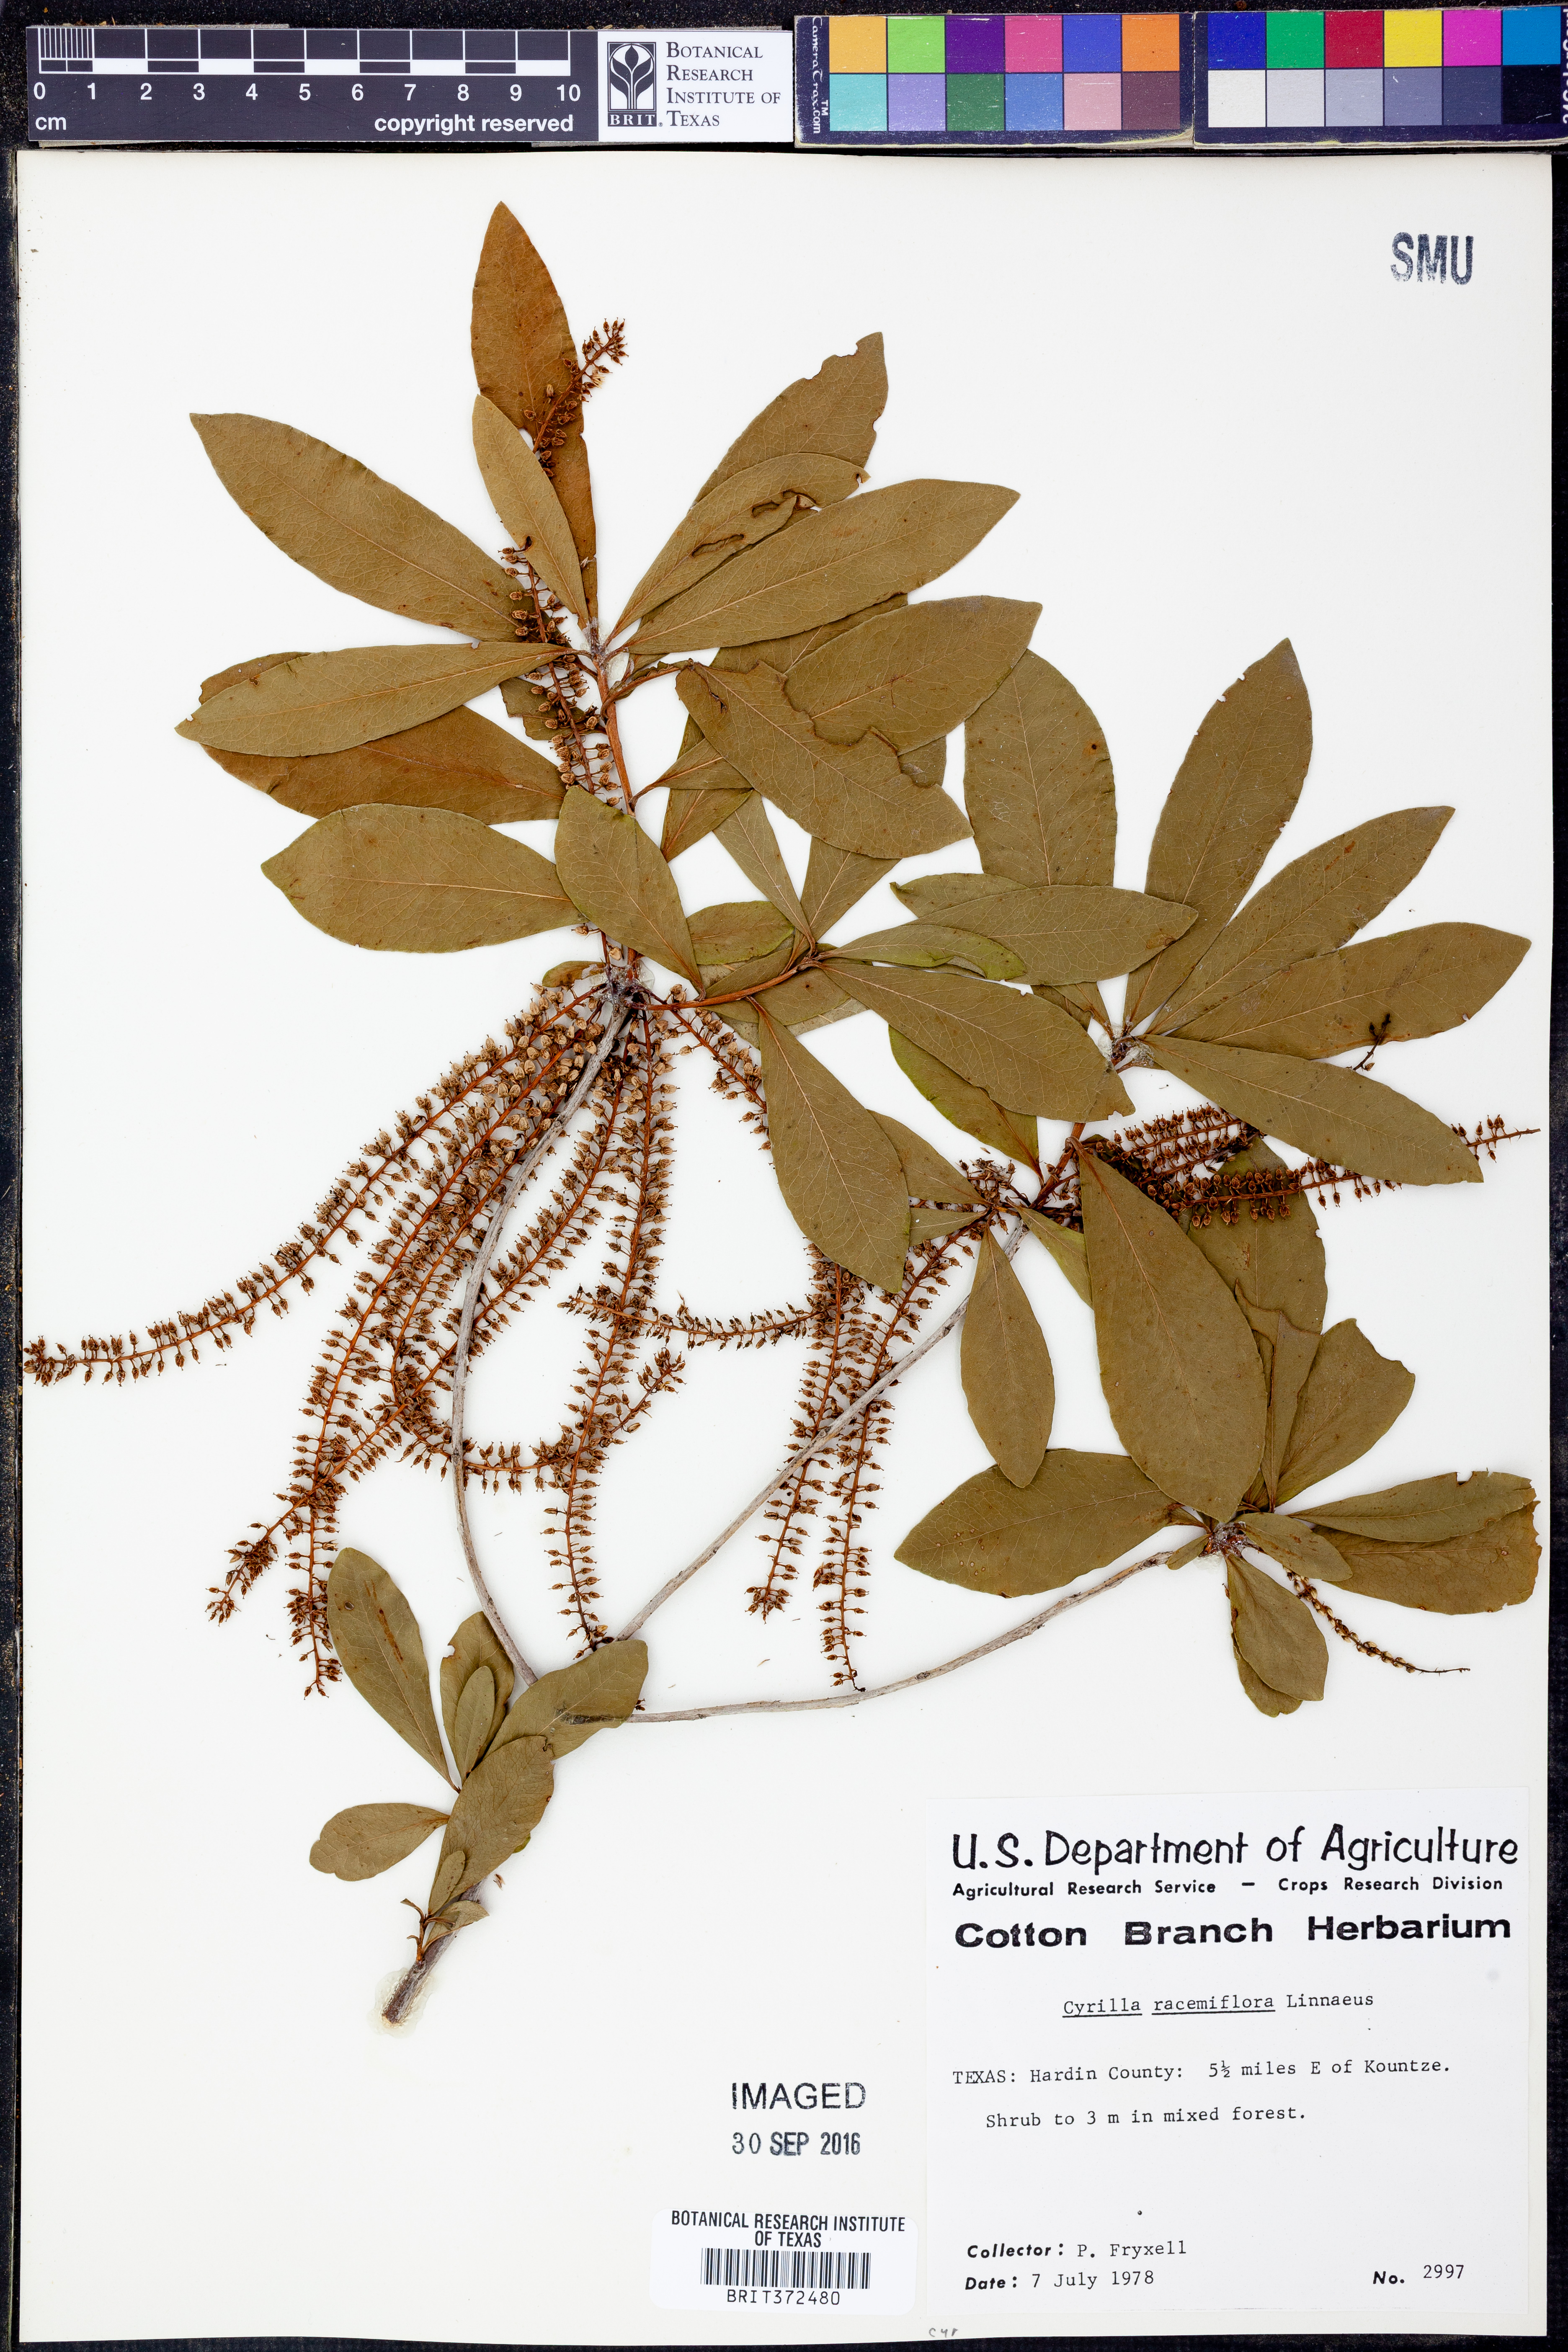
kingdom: Plantae
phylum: Tracheophyta
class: Magnoliopsida
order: Ericales
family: Cyrillaceae
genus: Cyrilla
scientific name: Cyrilla racemiflora
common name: Black titi
